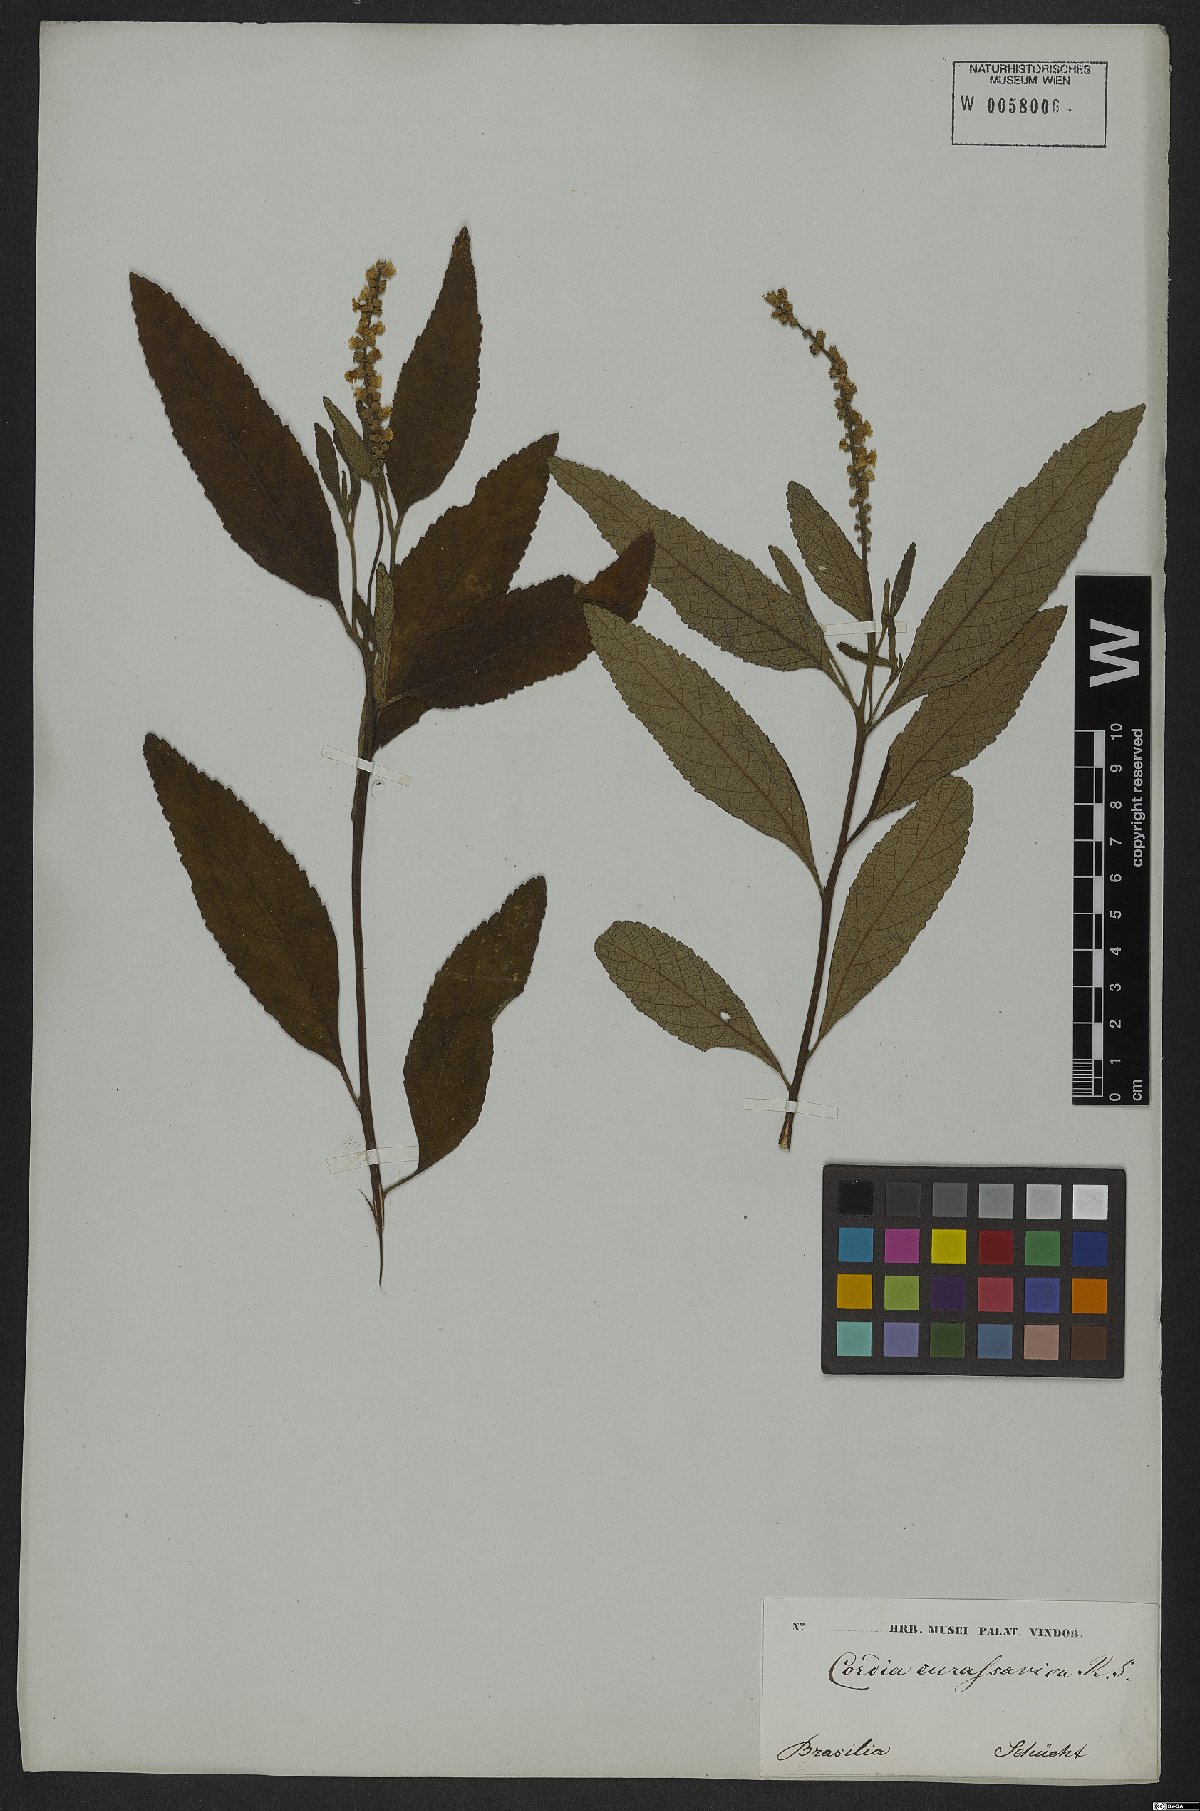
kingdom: Plantae
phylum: Tracheophyta
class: Magnoliopsida
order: Boraginales
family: Cordiaceae
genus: Varronia
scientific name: Varronia curassavica
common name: Black sage
